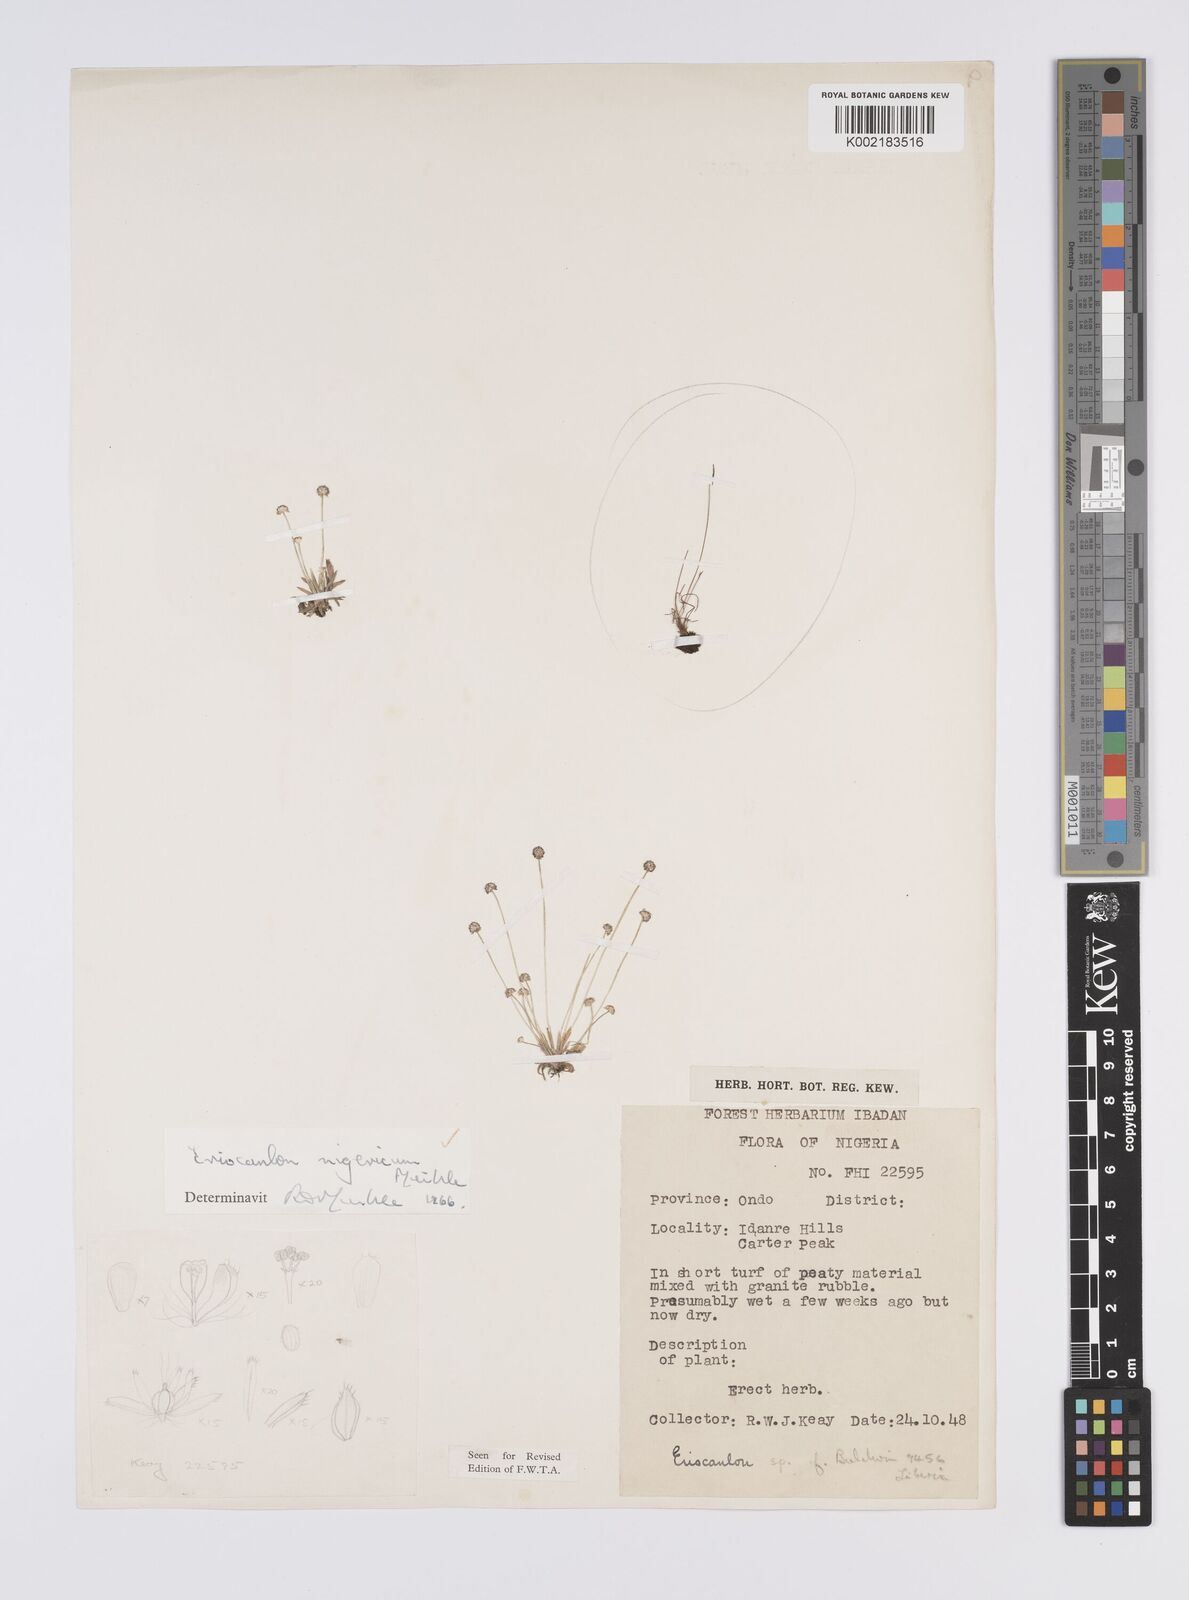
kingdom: Plantae
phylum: Tracheophyta
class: Liliopsida
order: Poales
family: Eriocaulaceae
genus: Eriocaulon
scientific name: Eriocaulon nigericum
